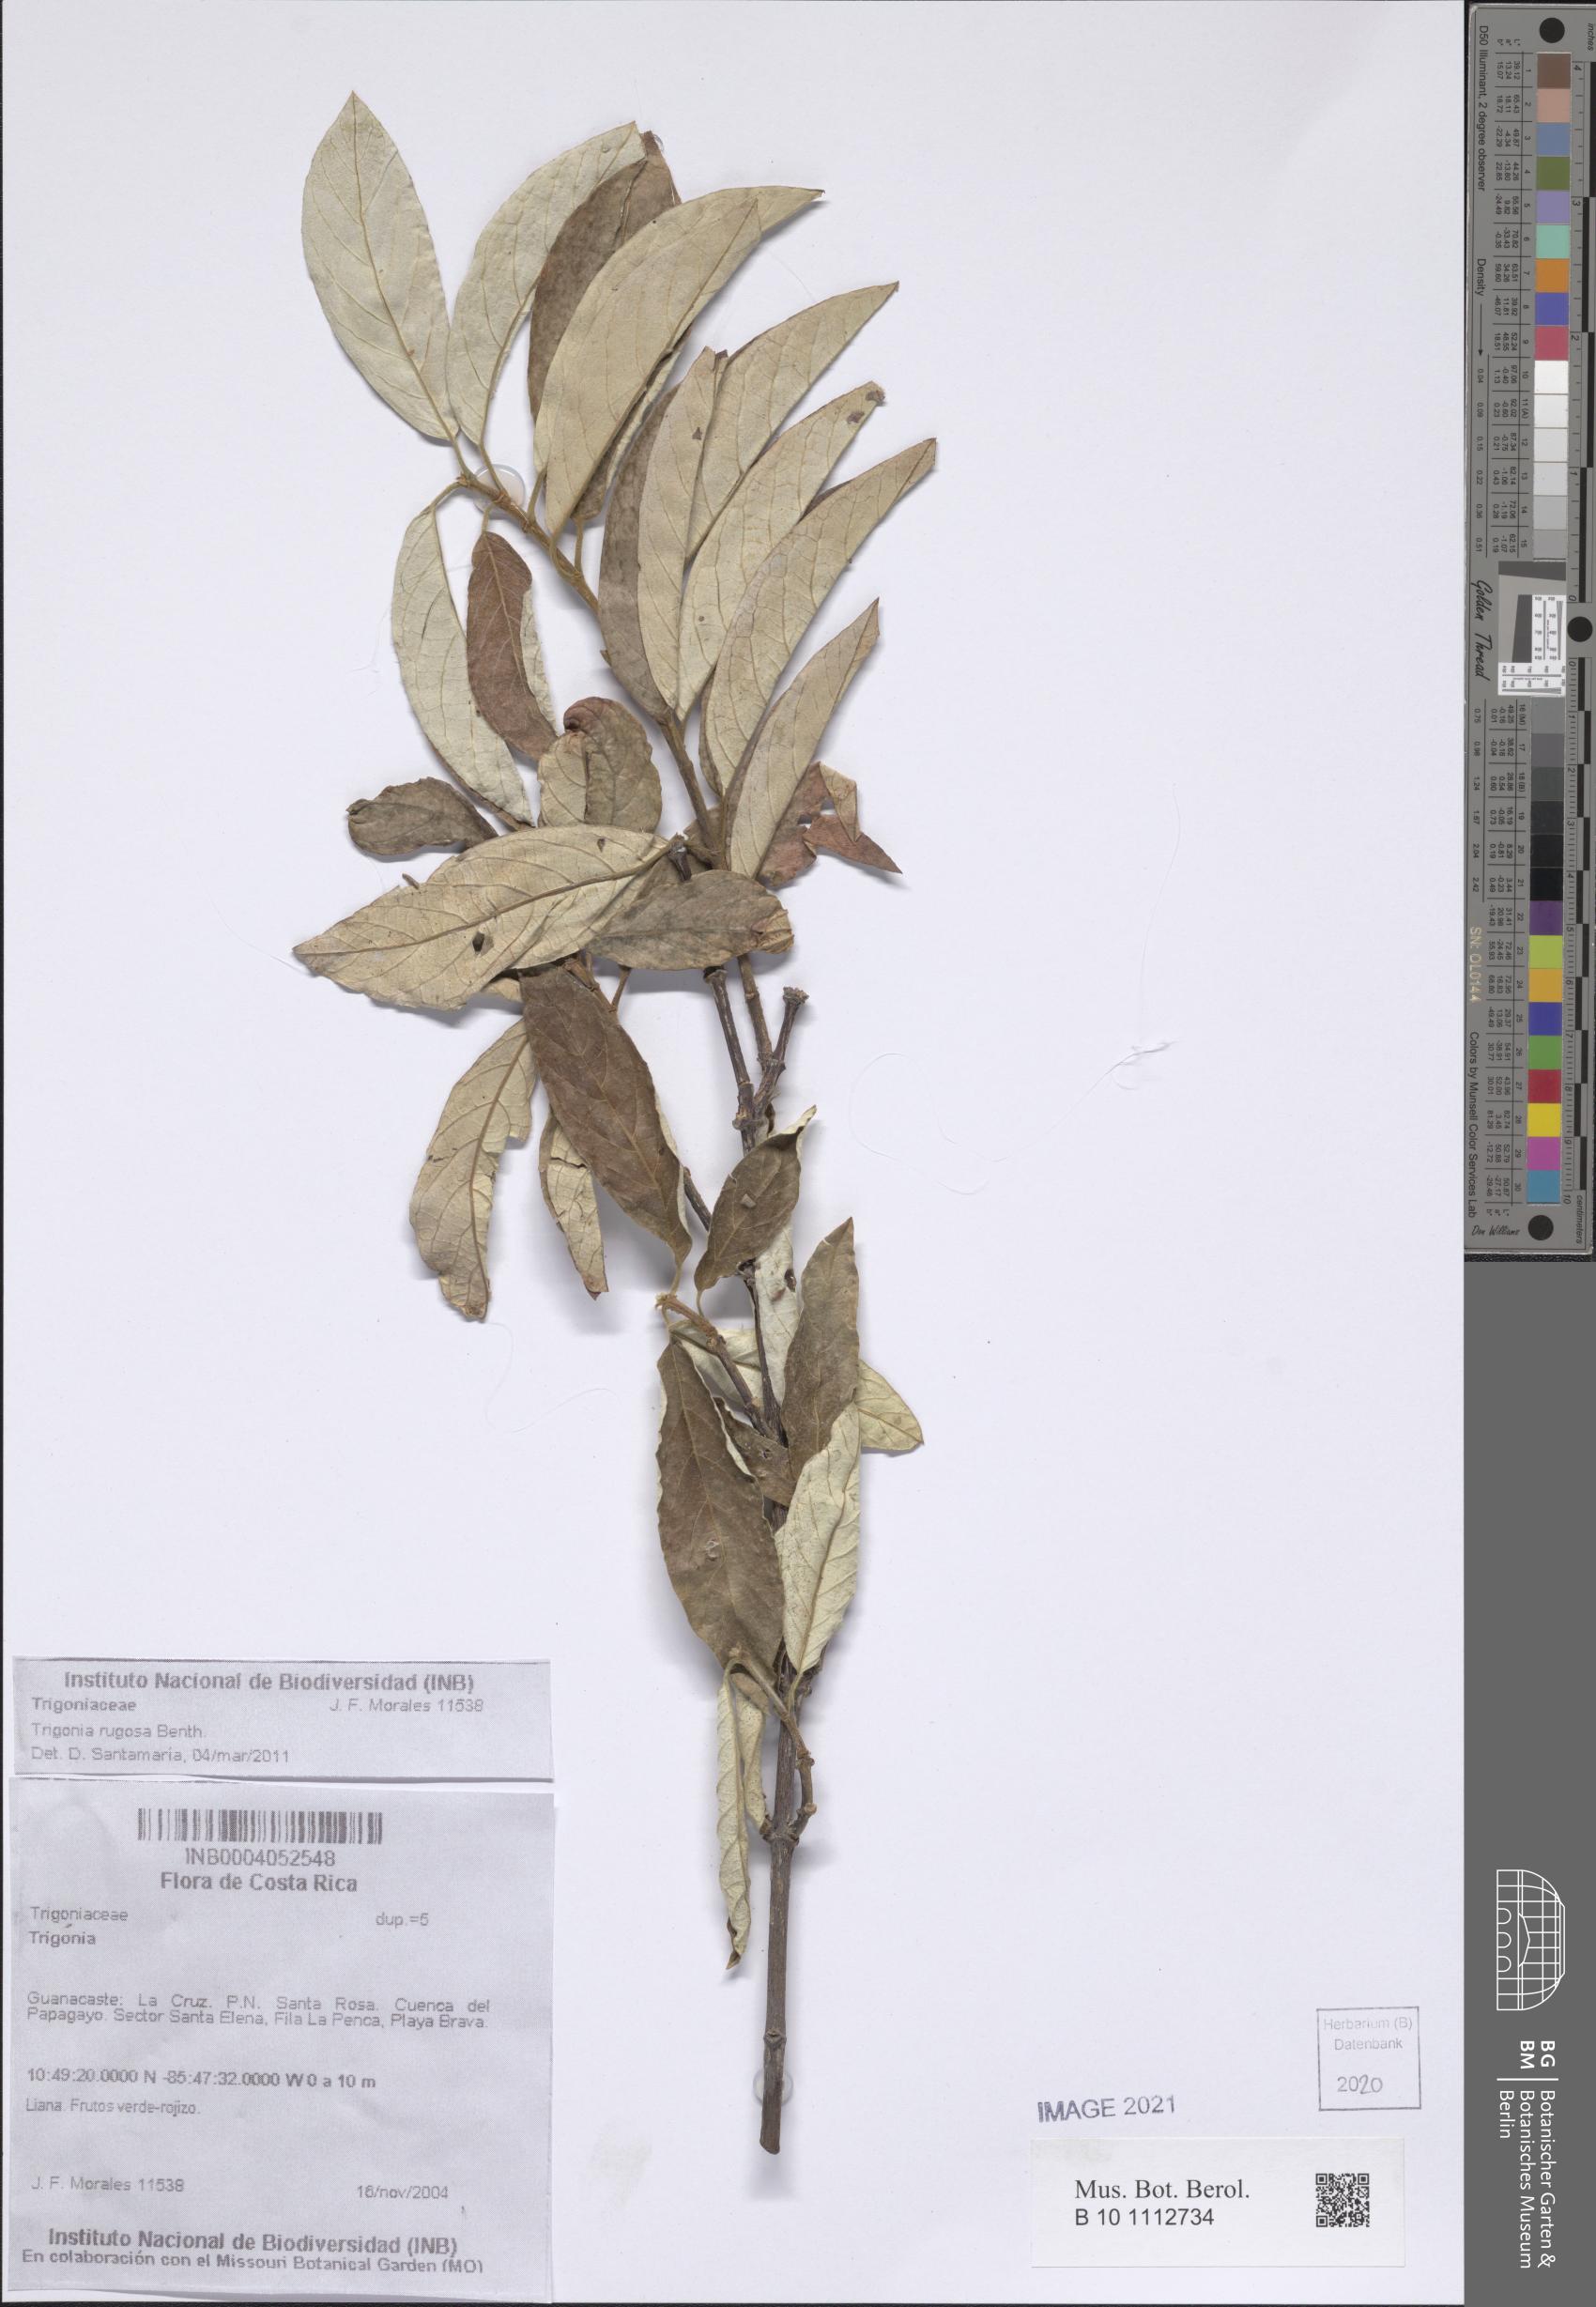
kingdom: Plantae
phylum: Tracheophyta
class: Magnoliopsida
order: Malpighiales
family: Trigoniaceae
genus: Trigonia
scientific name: Trigonia rugosa
